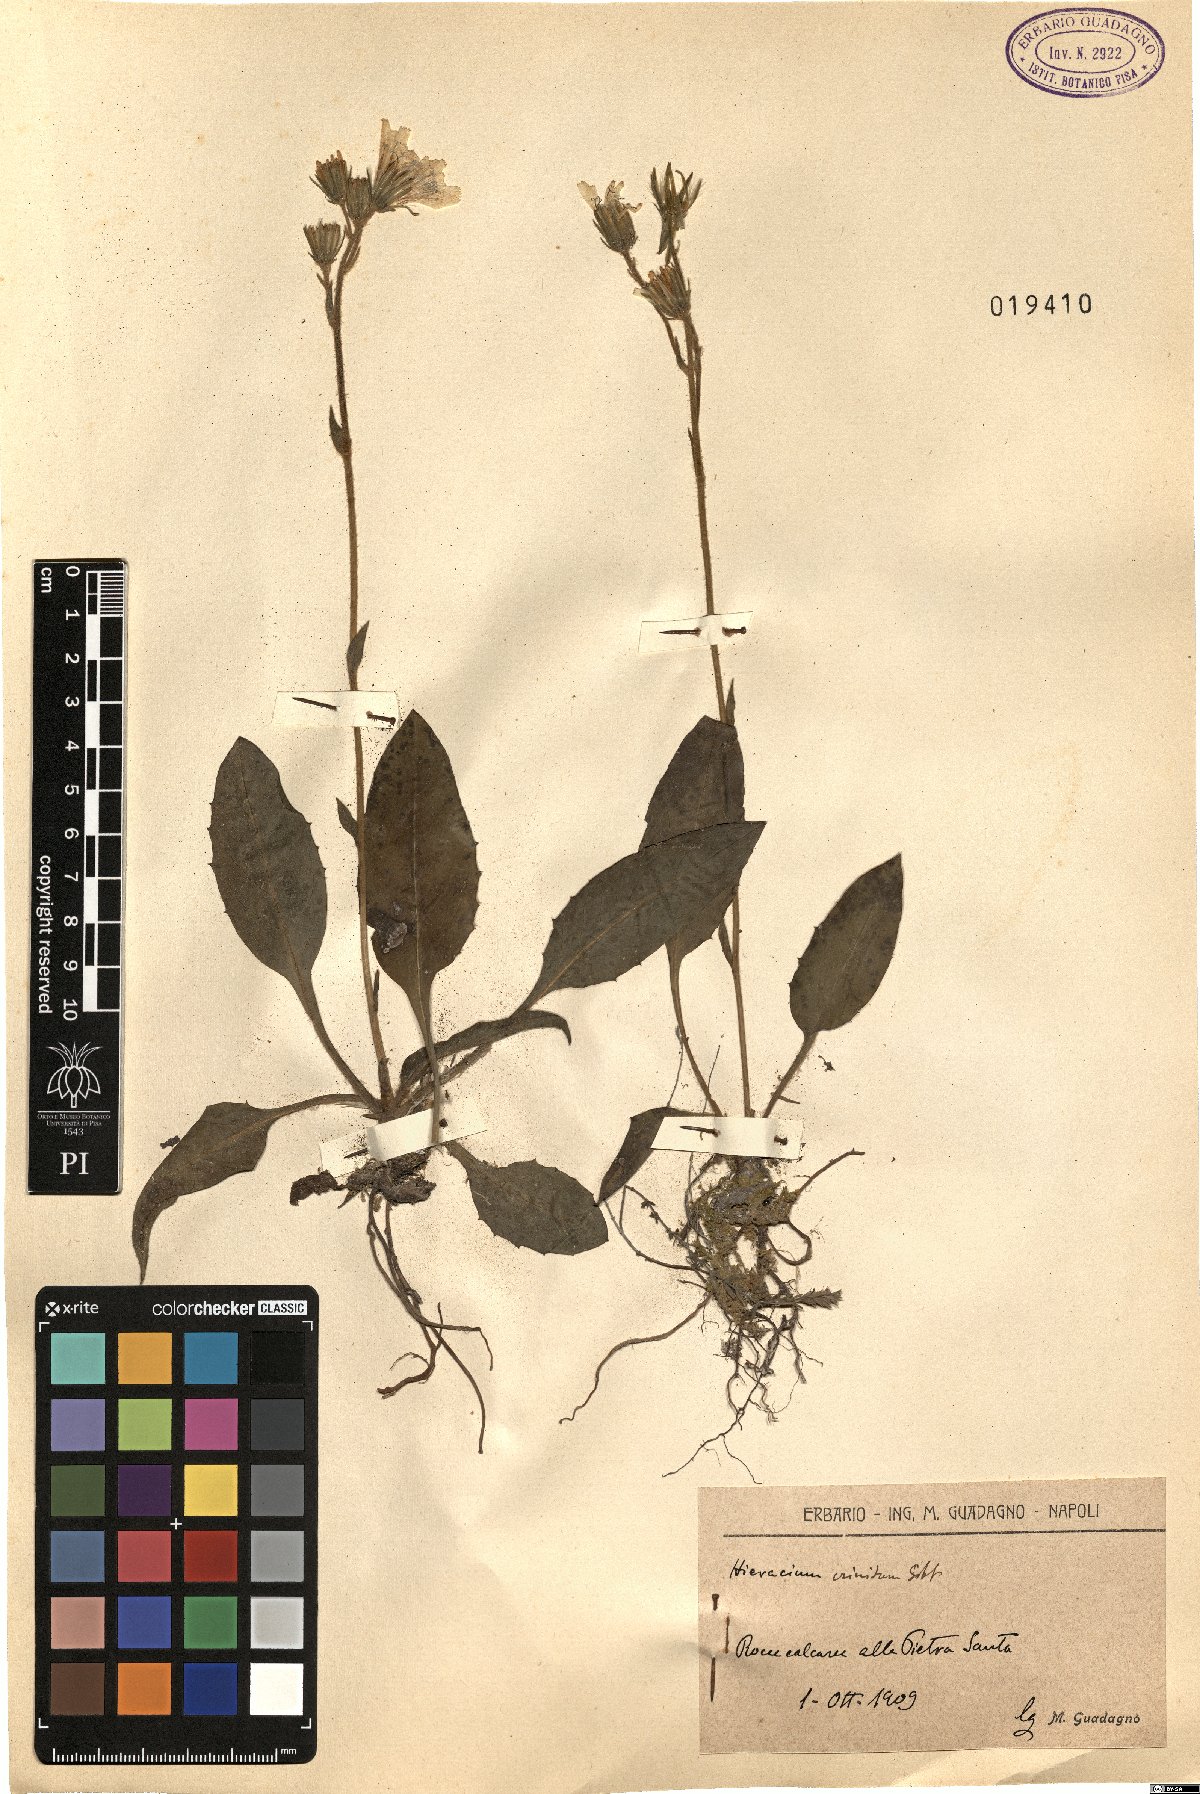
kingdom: Plantae
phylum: Tracheophyta
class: Magnoliopsida
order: Asterales
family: Asteraceae
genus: Hieracium
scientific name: Hieracium racemosum
